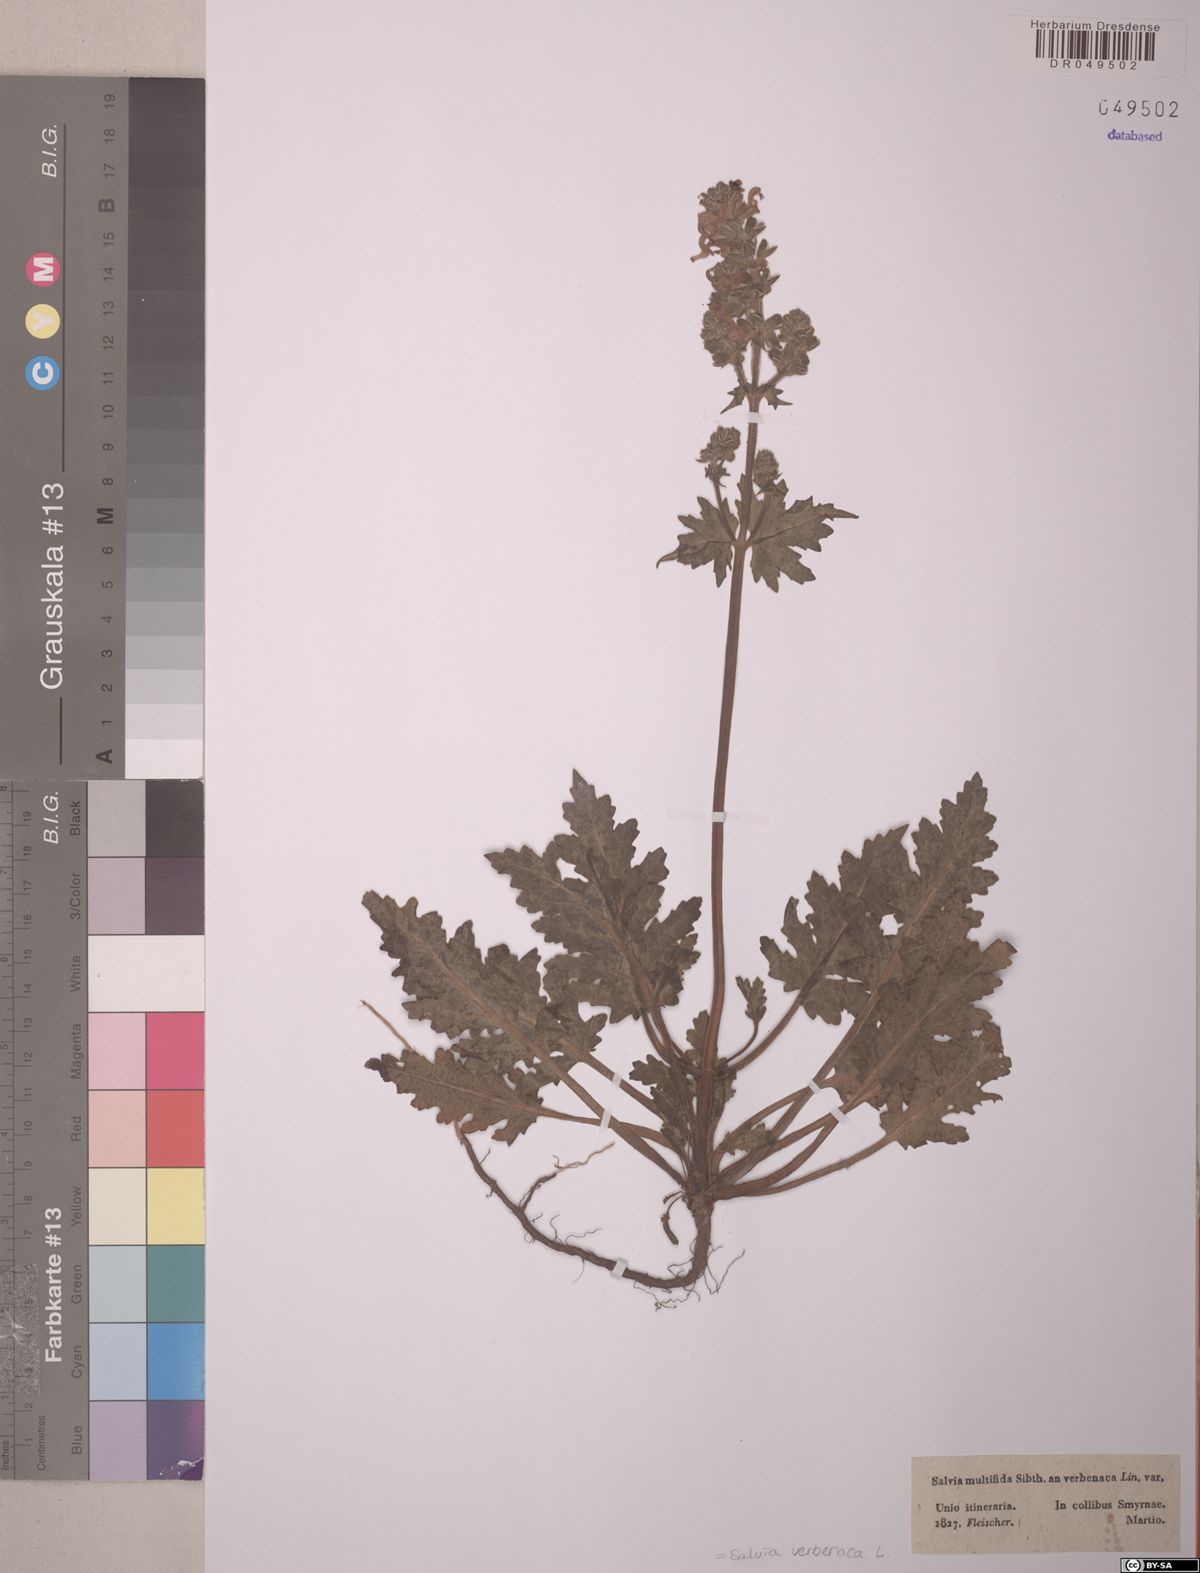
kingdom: Plantae
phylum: Tracheophyta
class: Magnoliopsida
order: Lamiales
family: Lamiaceae
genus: Salvia
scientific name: Salvia verbenaca
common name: Wild clary
